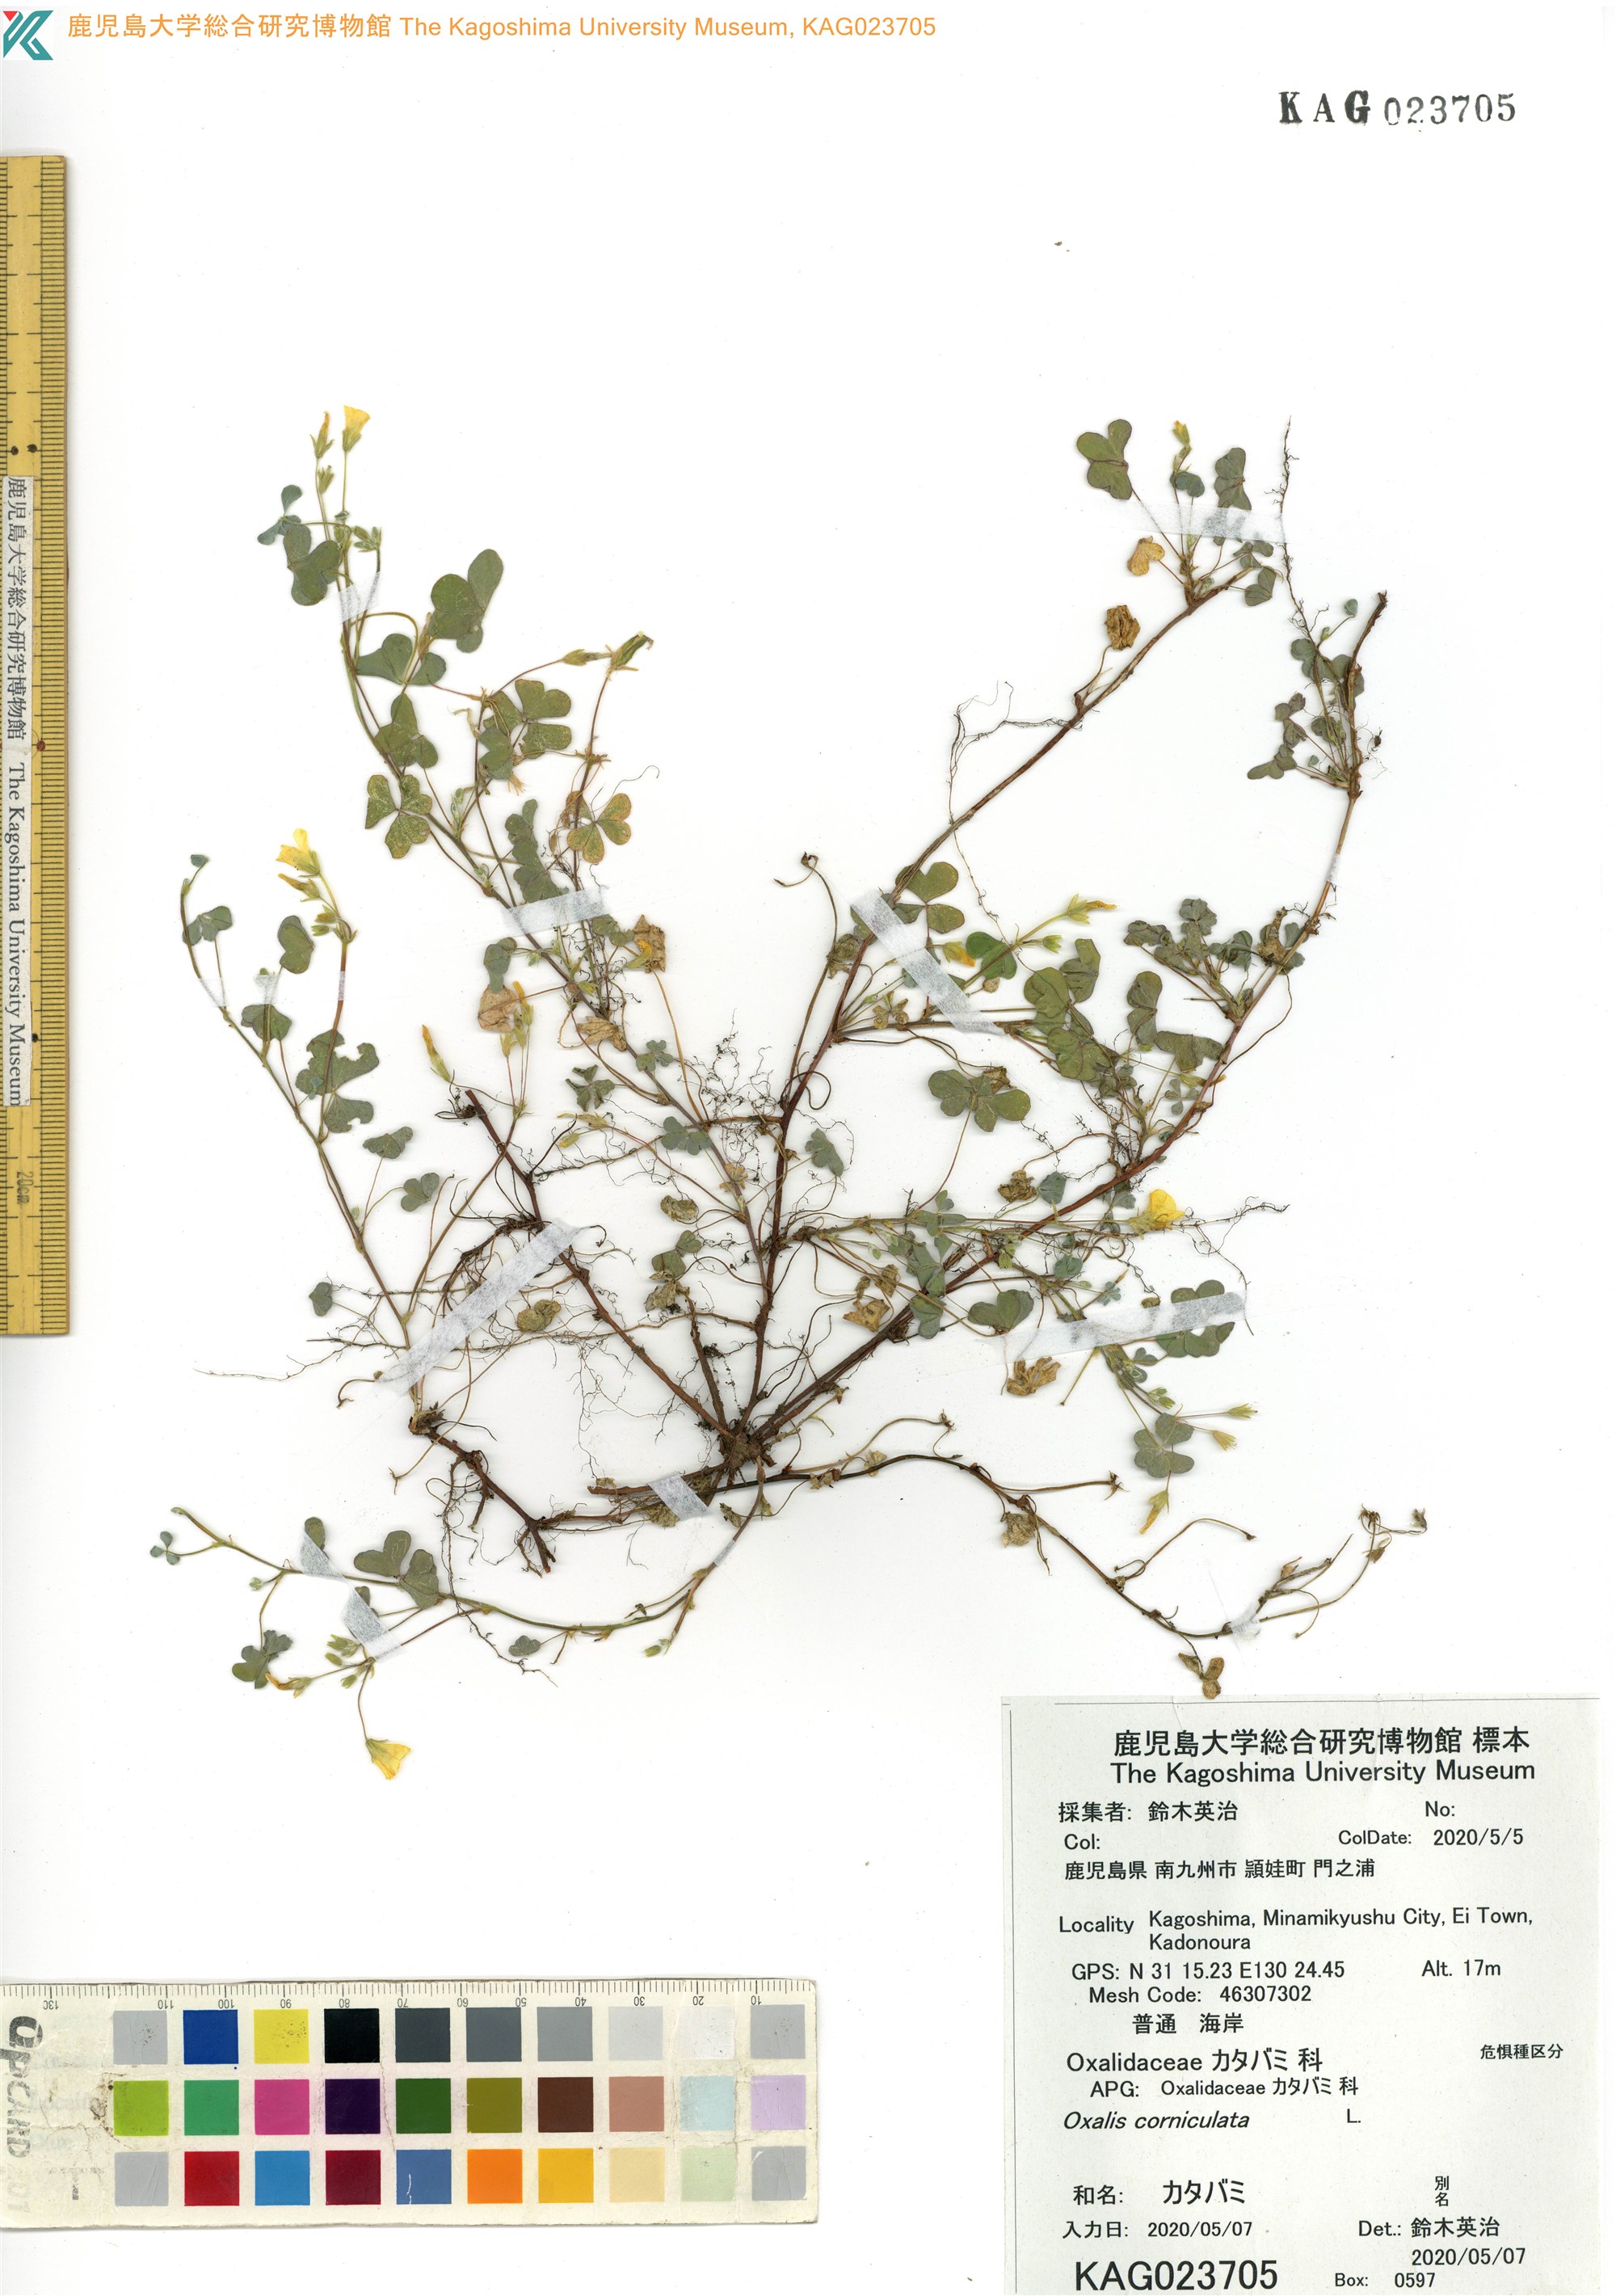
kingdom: Plantae
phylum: Tracheophyta
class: Magnoliopsida
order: Oxalidales
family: Oxalidaceae
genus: Oxalis
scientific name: Oxalis corniculata
